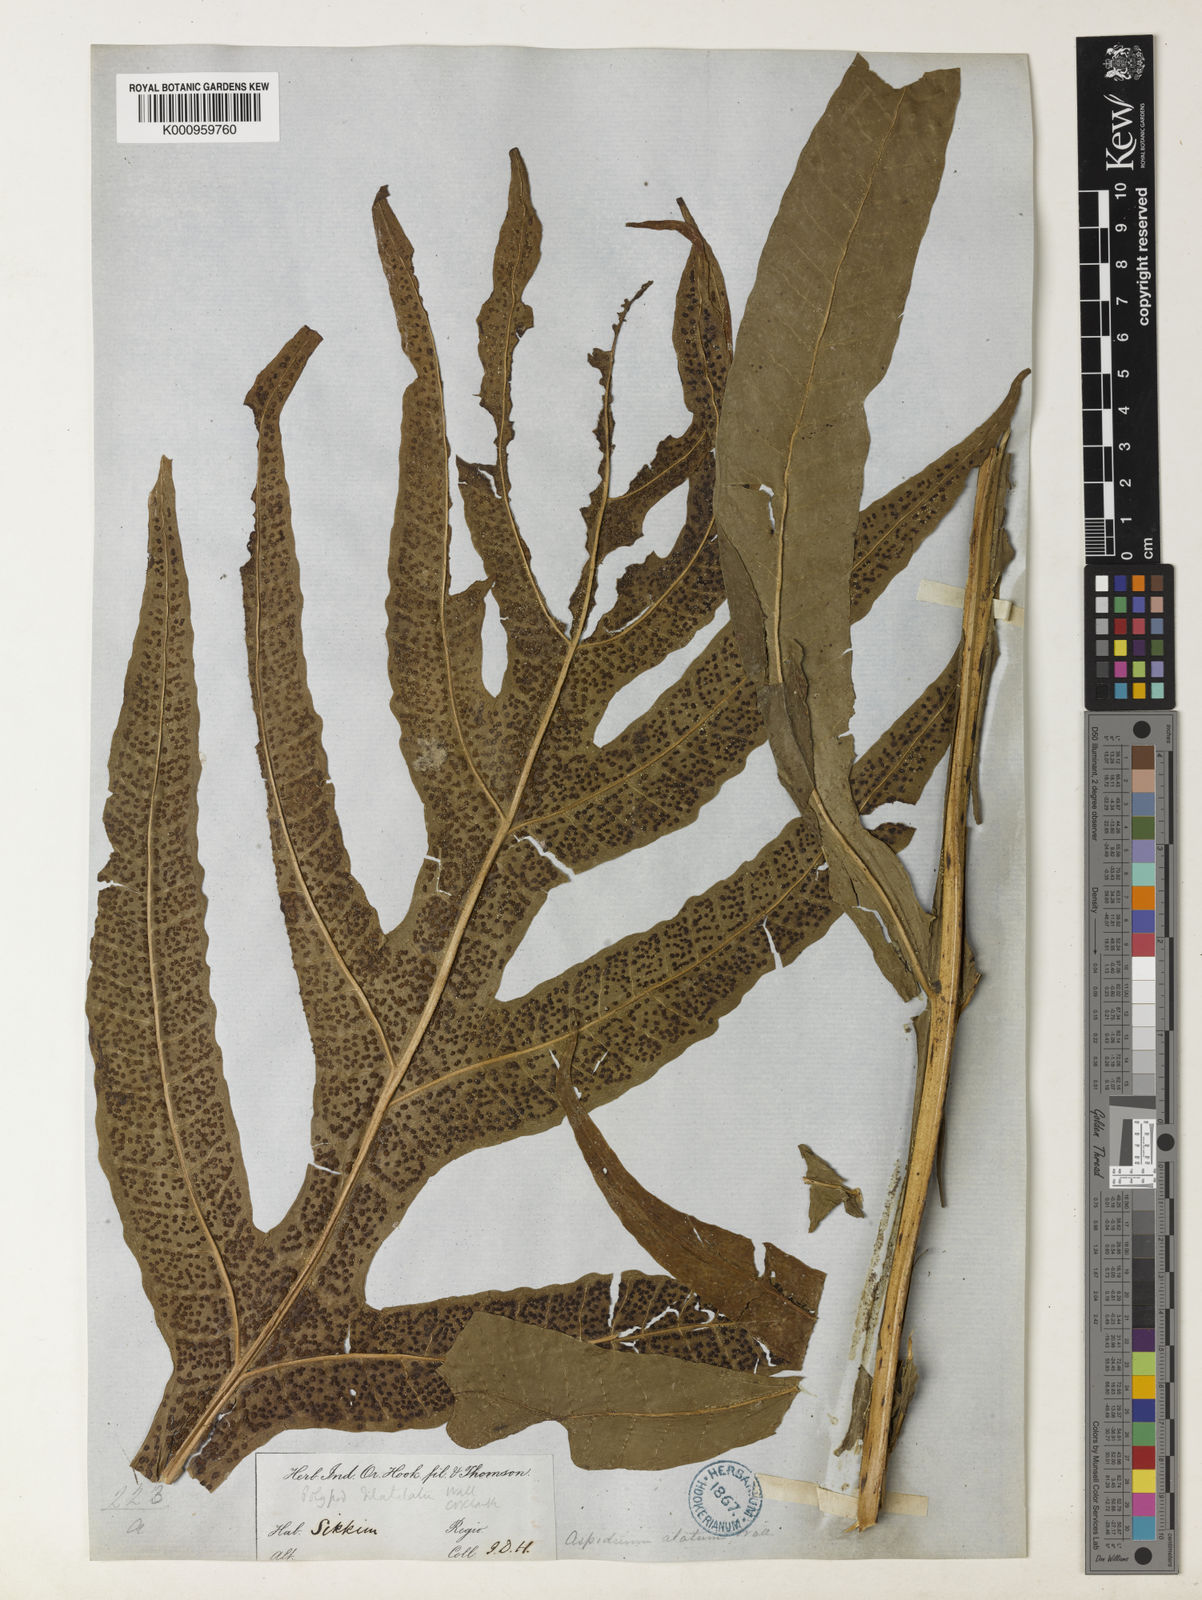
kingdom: Plantae
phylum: Tracheophyta
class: Polypodiopsida
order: Polypodiales
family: Polypodiaceae
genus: Leptochilus
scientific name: Leptochilus insignis
